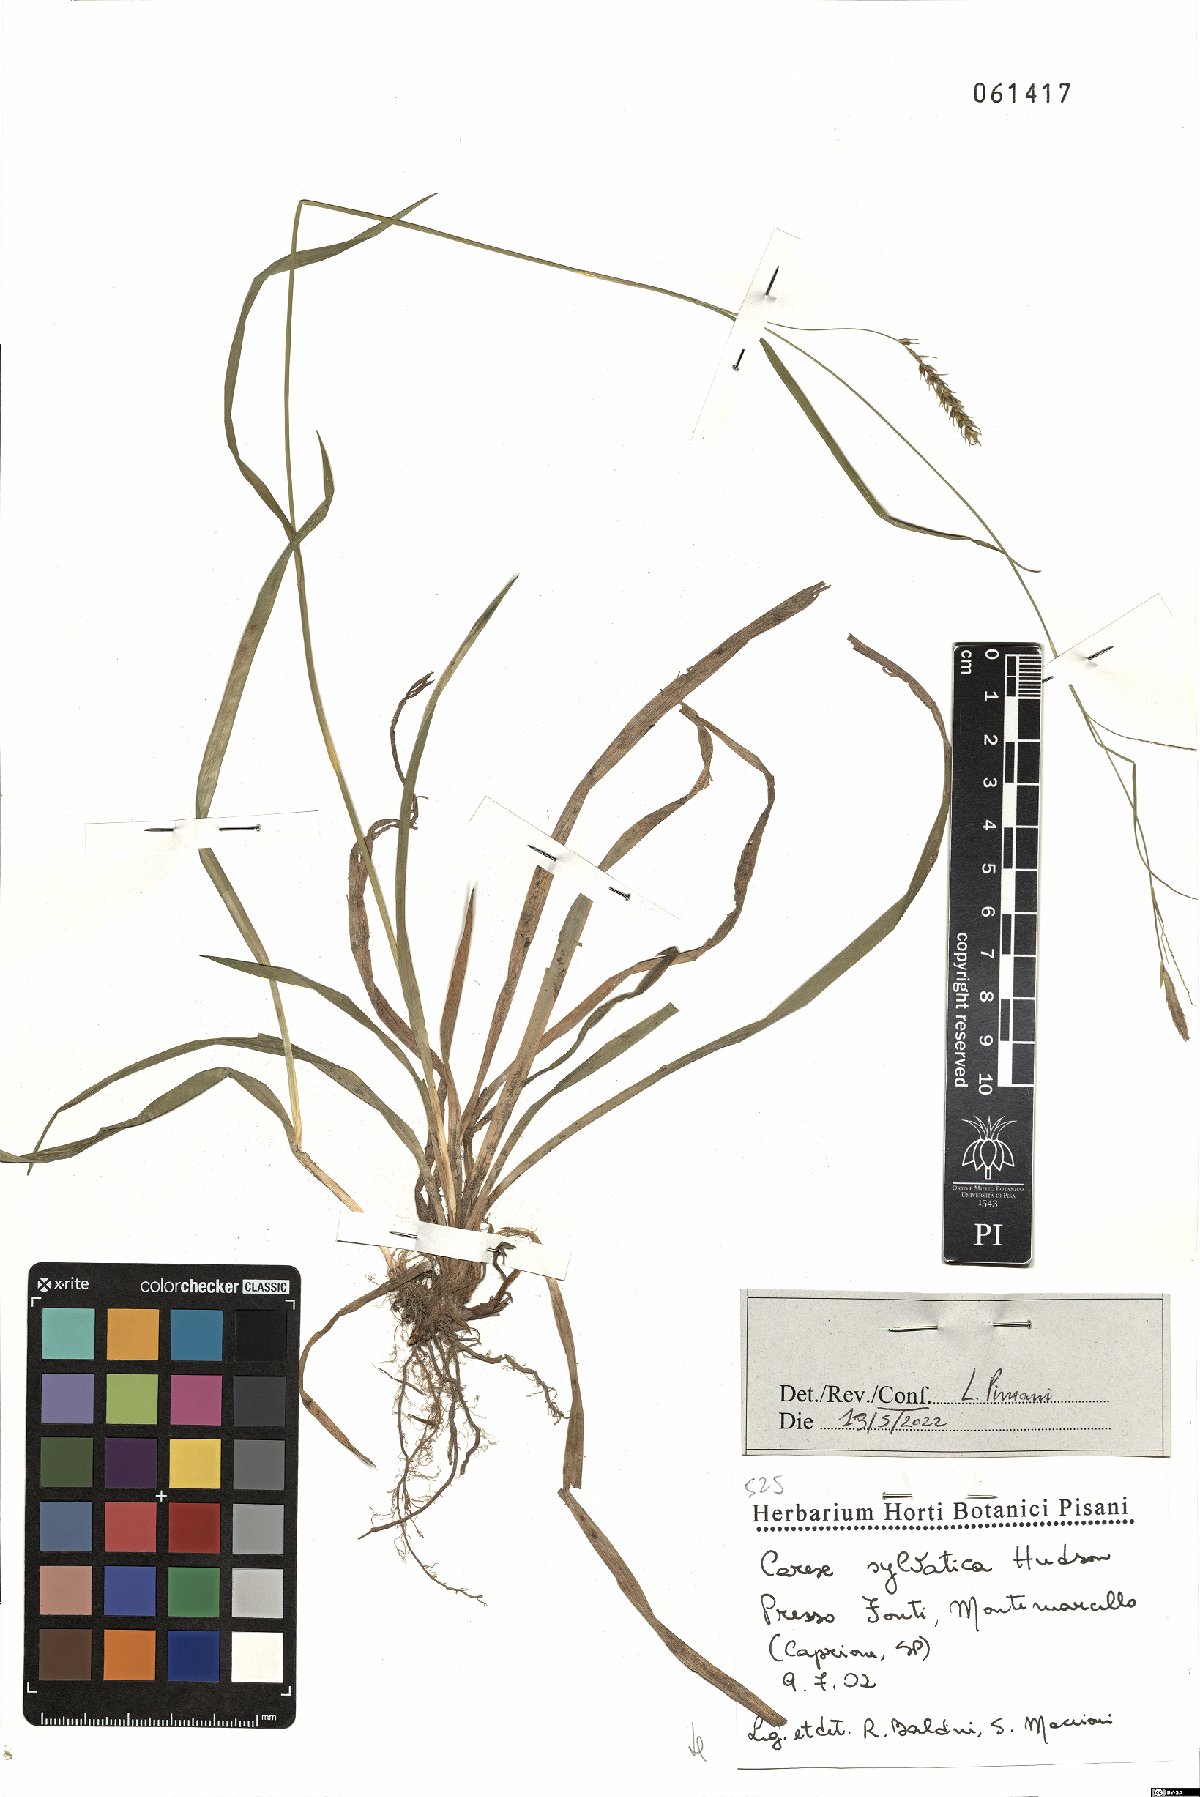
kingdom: Plantae
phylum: Tracheophyta
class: Liliopsida
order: Poales
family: Cyperaceae
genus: Carex
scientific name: Carex sylvatica
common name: Wood-sedge
